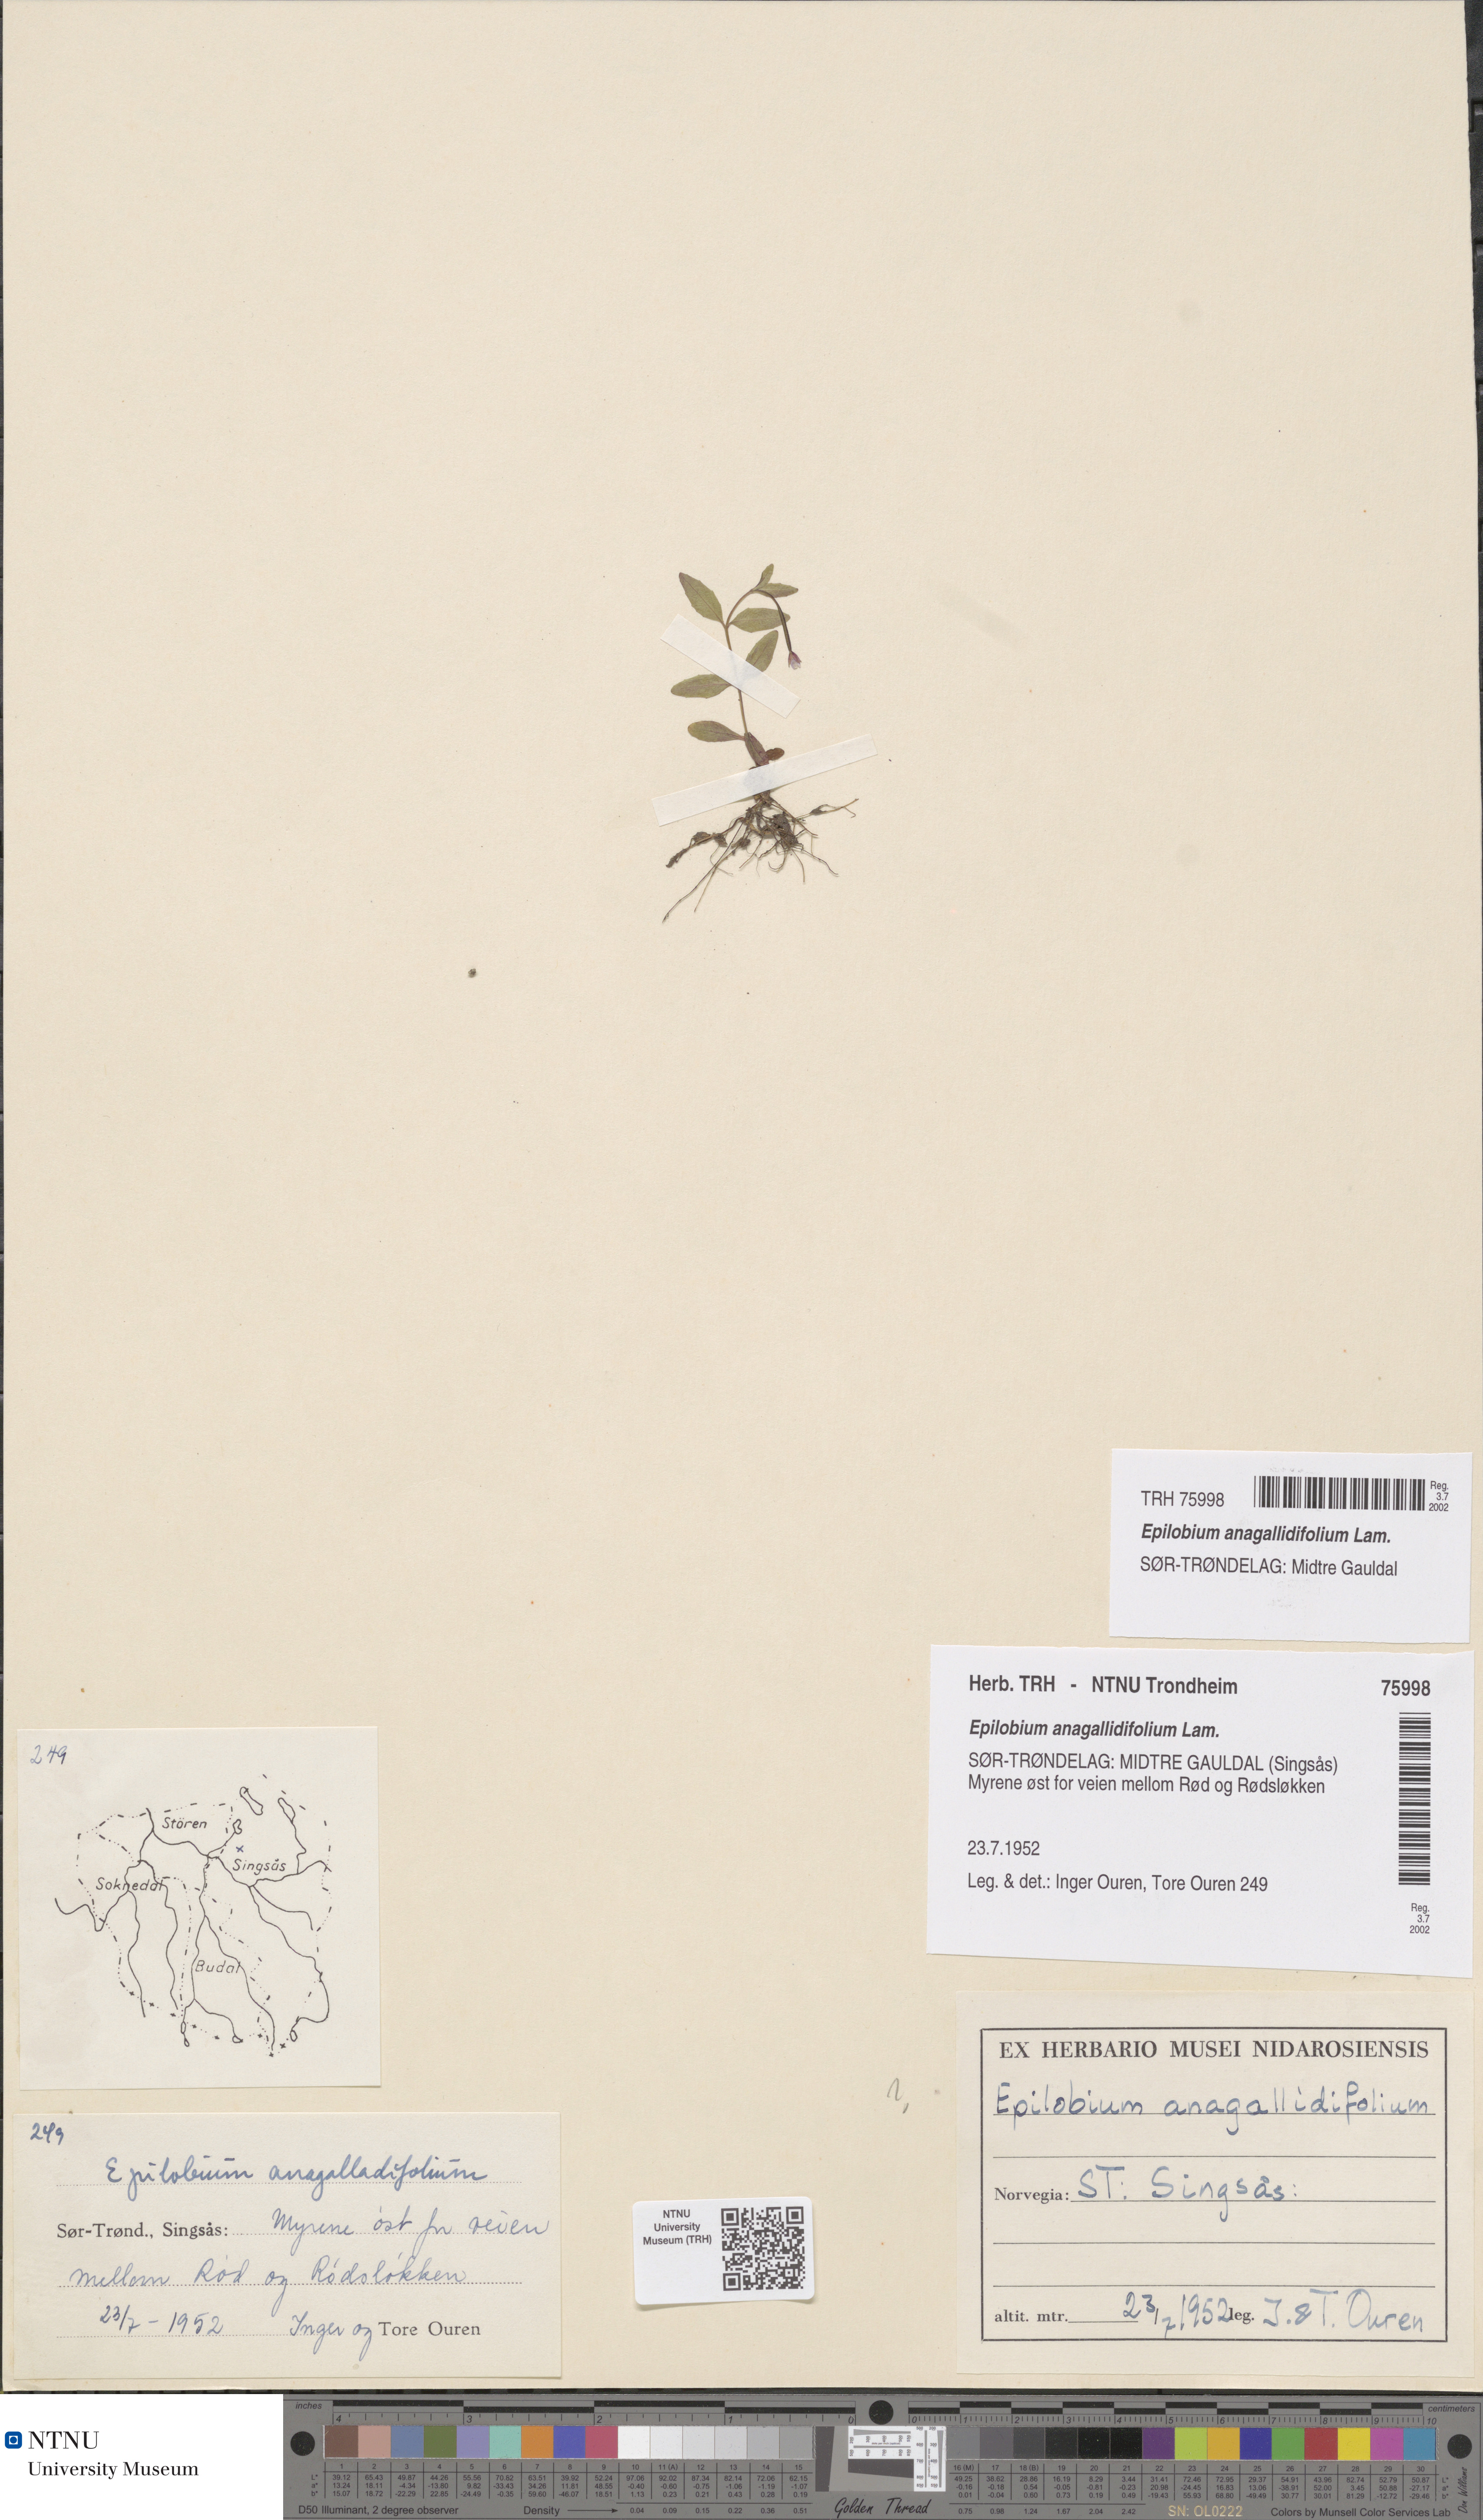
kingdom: Plantae
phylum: Tracheophyta
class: Magnoliopsida
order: Myrtales
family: Onagraceae
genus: Epilobium
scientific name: Epilobium anagallidifolium
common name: Alpine willowherb
